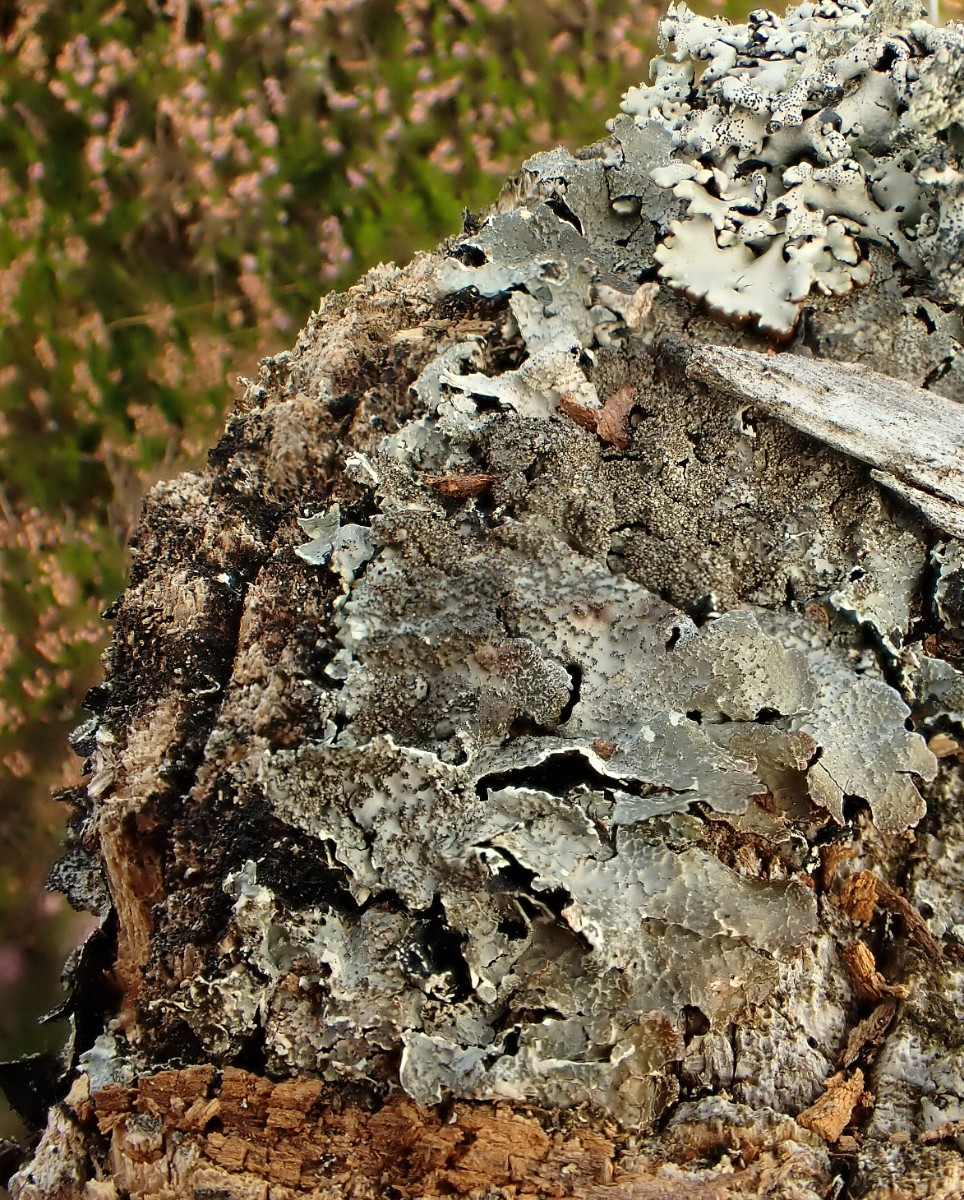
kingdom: Fungi
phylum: Ascomycota
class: Lecanoromycetes
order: Lecanorales
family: Parmeliaceae
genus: Parmelia
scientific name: Parmelia saxatilis
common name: farve-skållav
